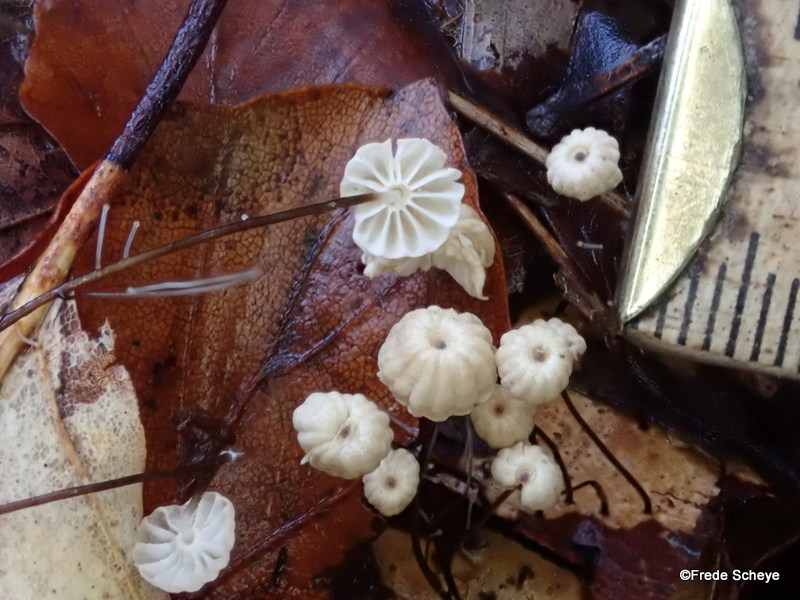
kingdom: Fungi
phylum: Basidiomycota
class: Agaricomycetes
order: Agaricales
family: Marasmiaceae
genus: Marasmius
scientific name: Marasmius bulliardii
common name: furet bruskhat
